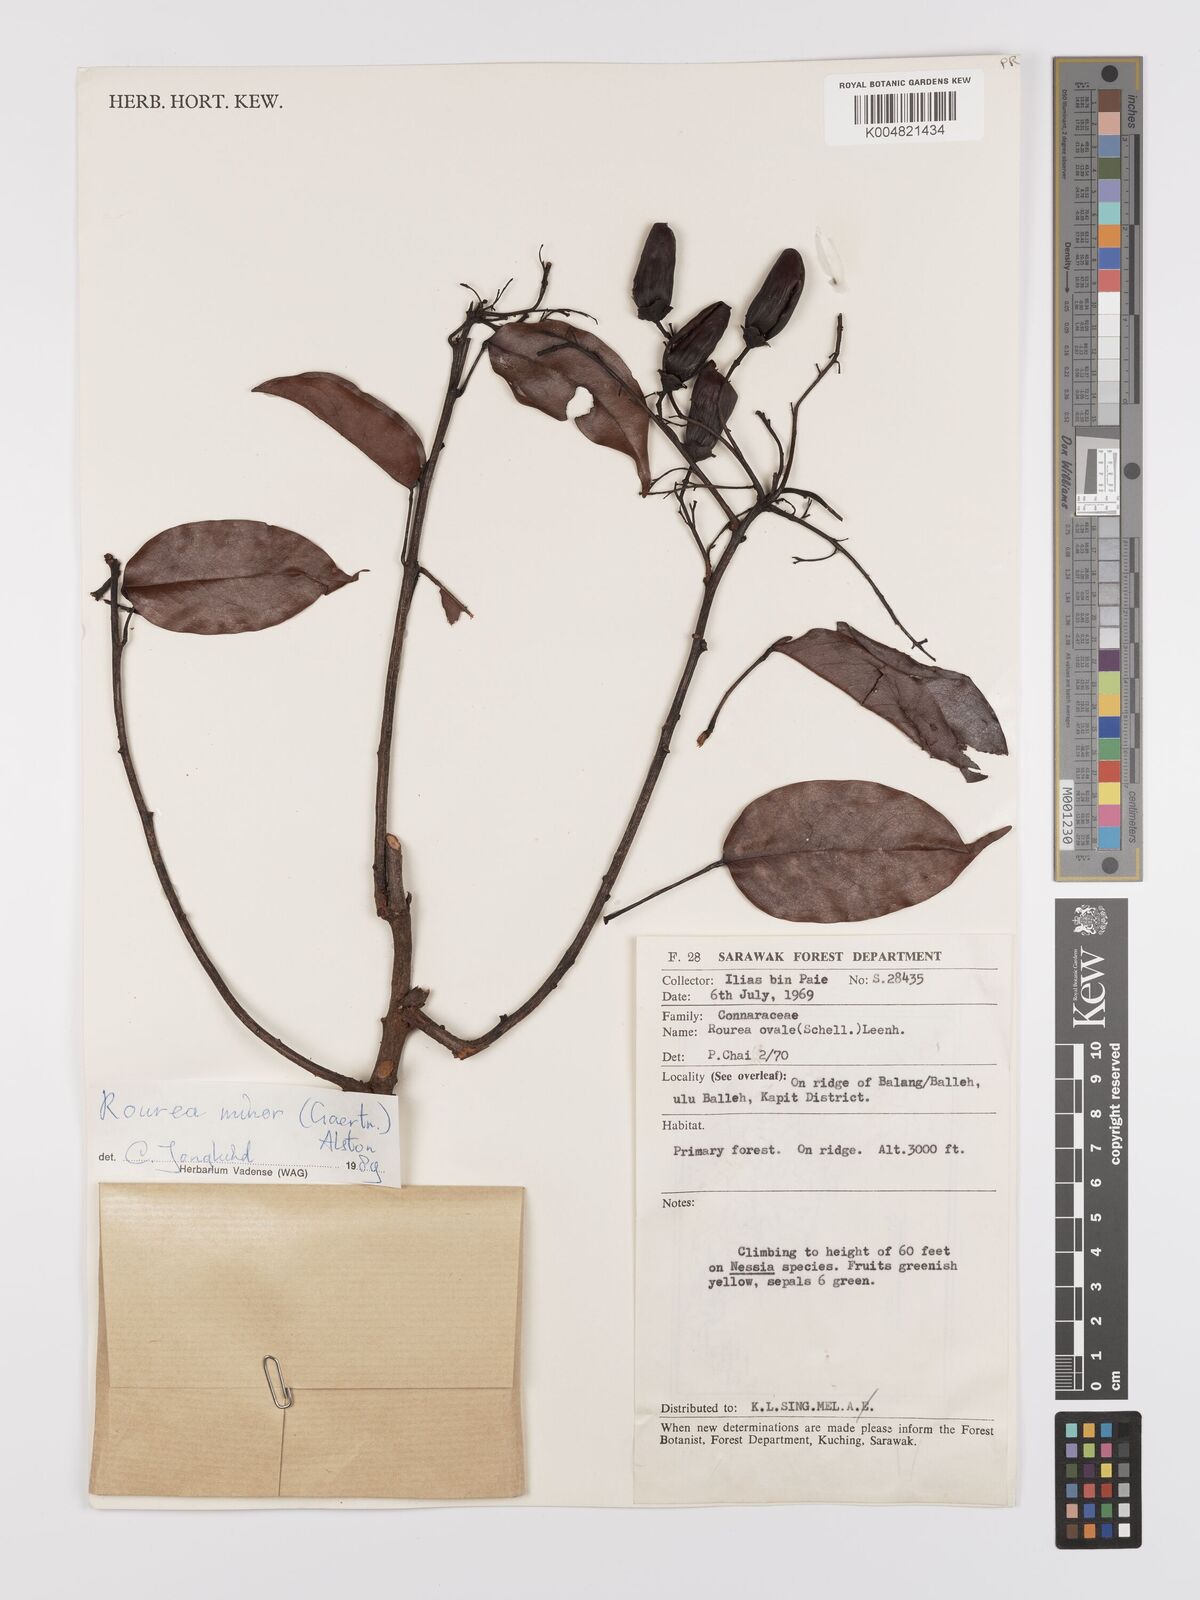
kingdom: Plantae
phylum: Tracheophyta
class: Magnoliopsida
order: Oxalidales
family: Connaraceae
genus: Rourea
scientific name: Rourea ovalis
